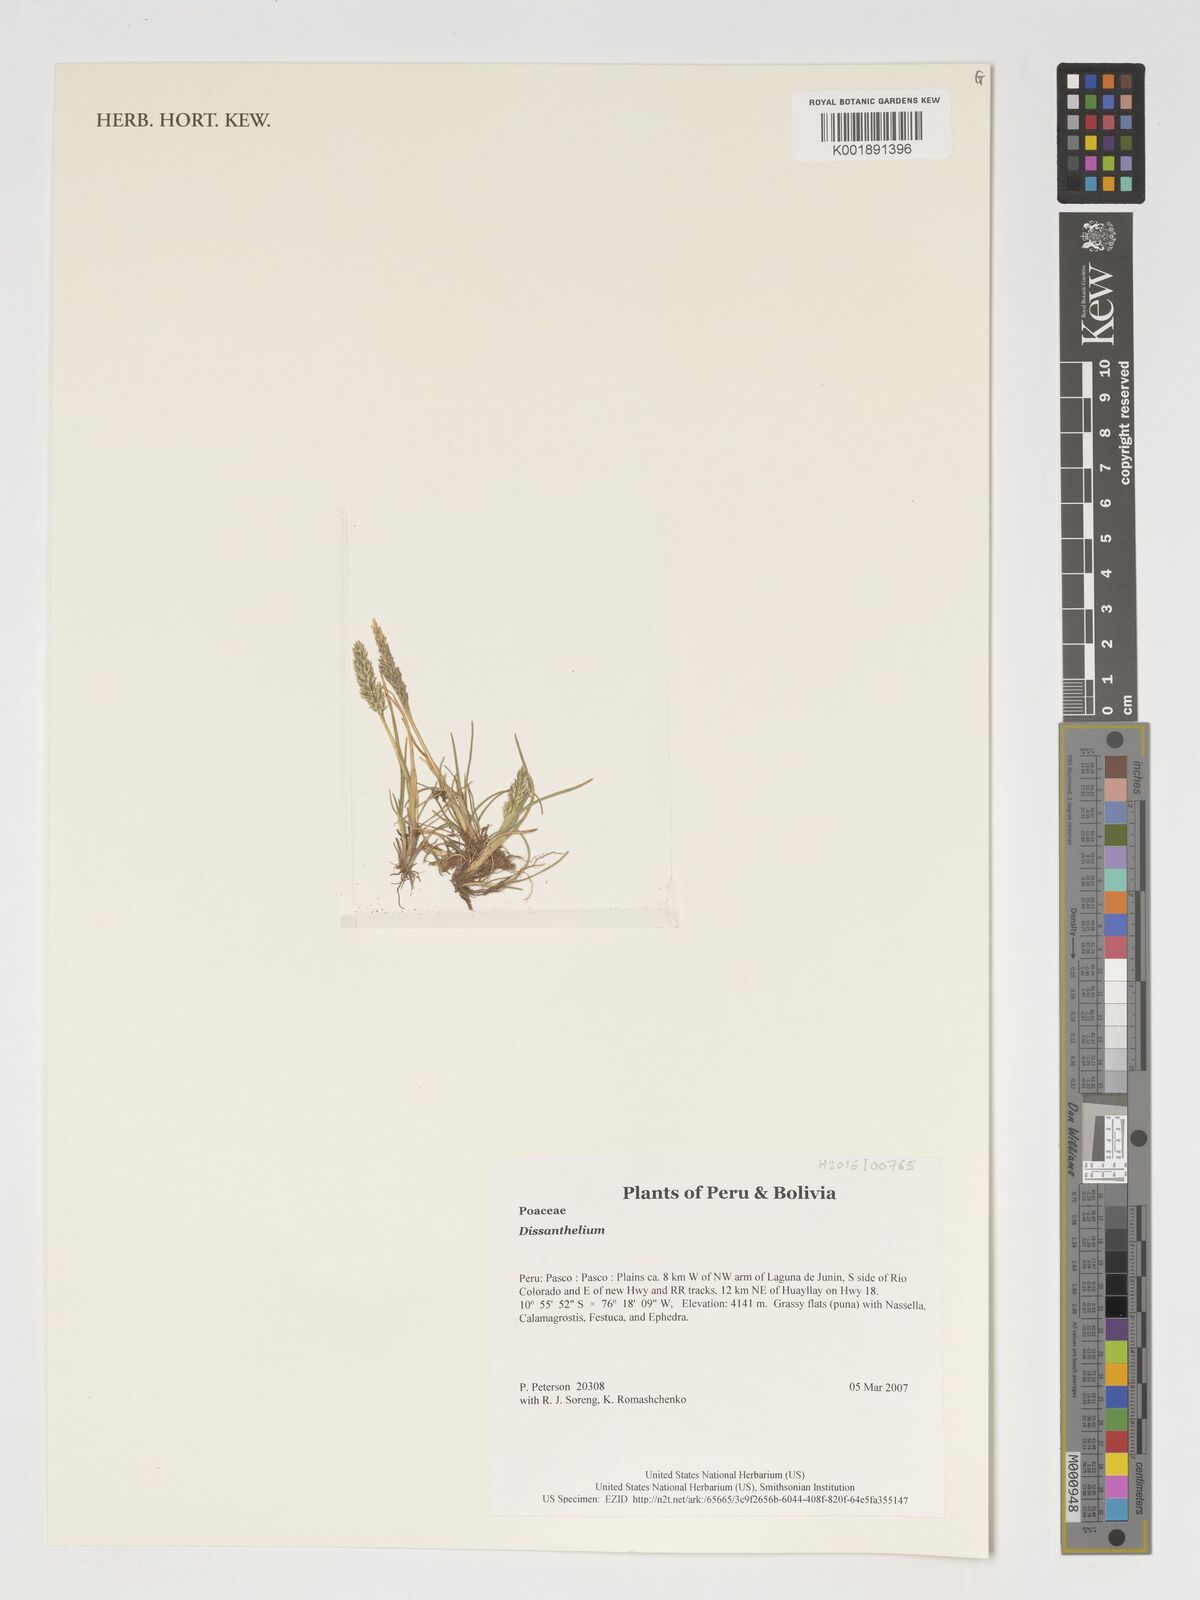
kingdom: Plantae
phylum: Tracheophyta
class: Liliopsida
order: Poales
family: Poaceae
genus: Poa
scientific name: Poa
